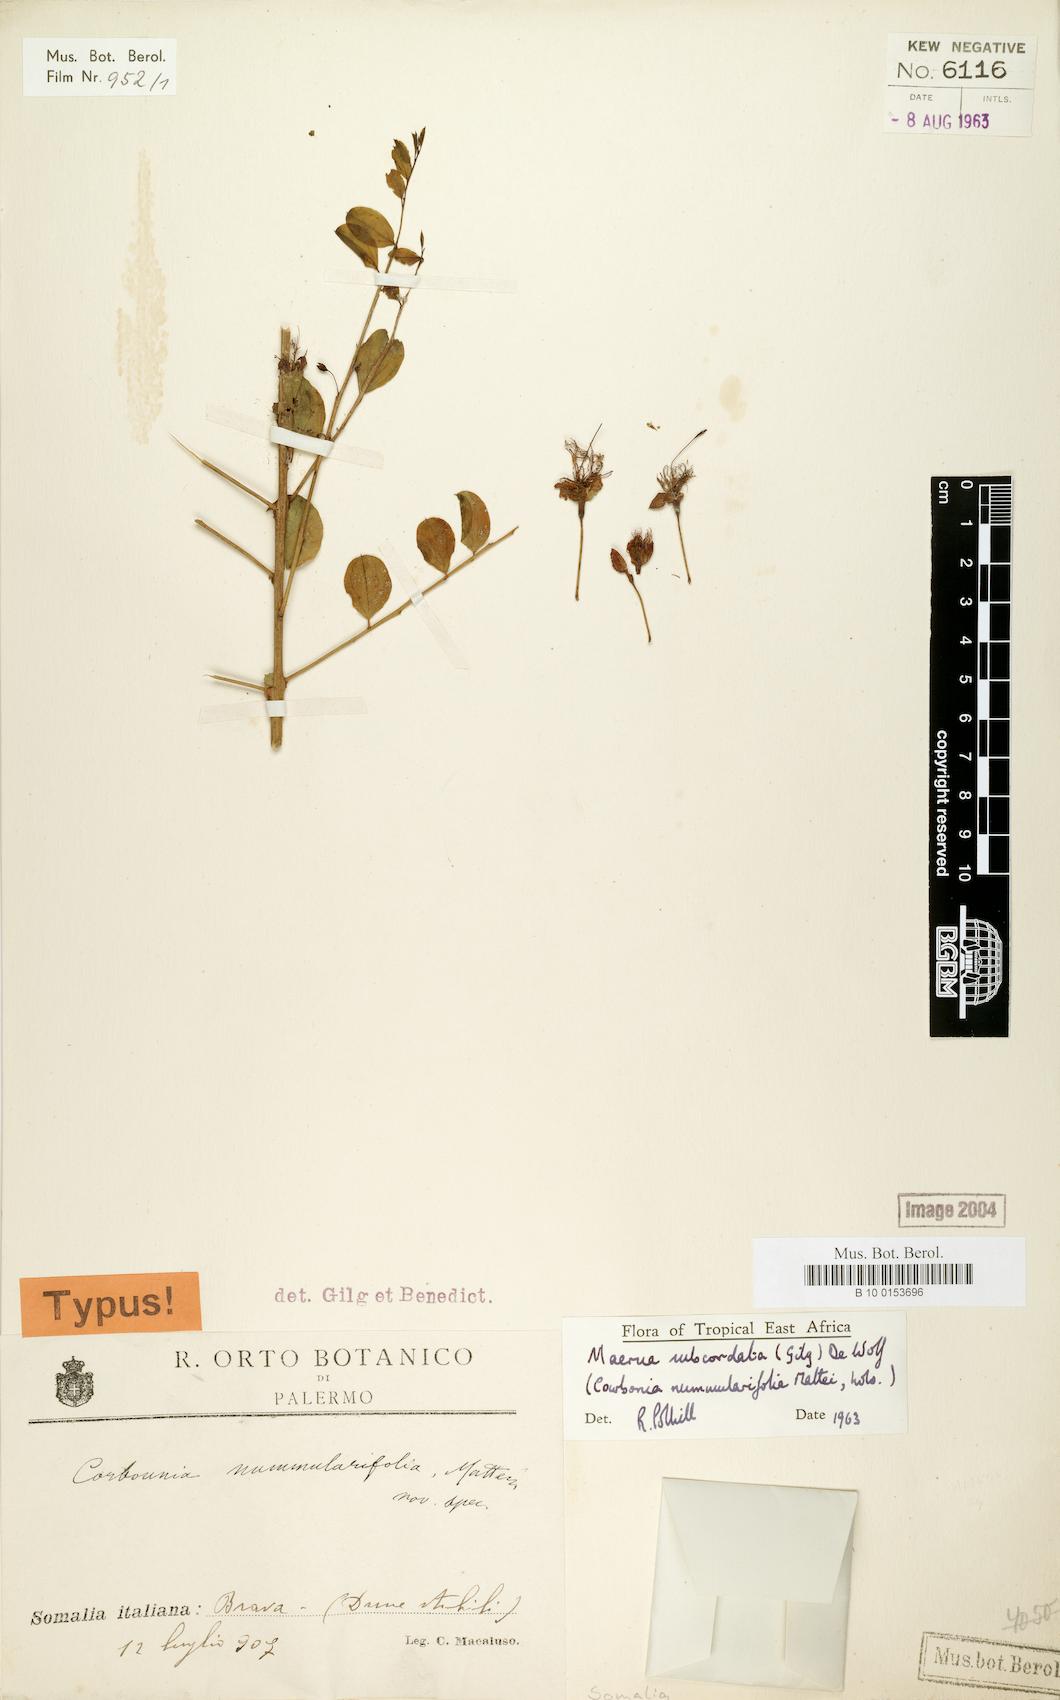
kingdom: Plantae
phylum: Tracheophyta
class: Magnoliopsida
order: Brassicales
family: Capparaceae
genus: Maerua
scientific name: Maerua subcordata
